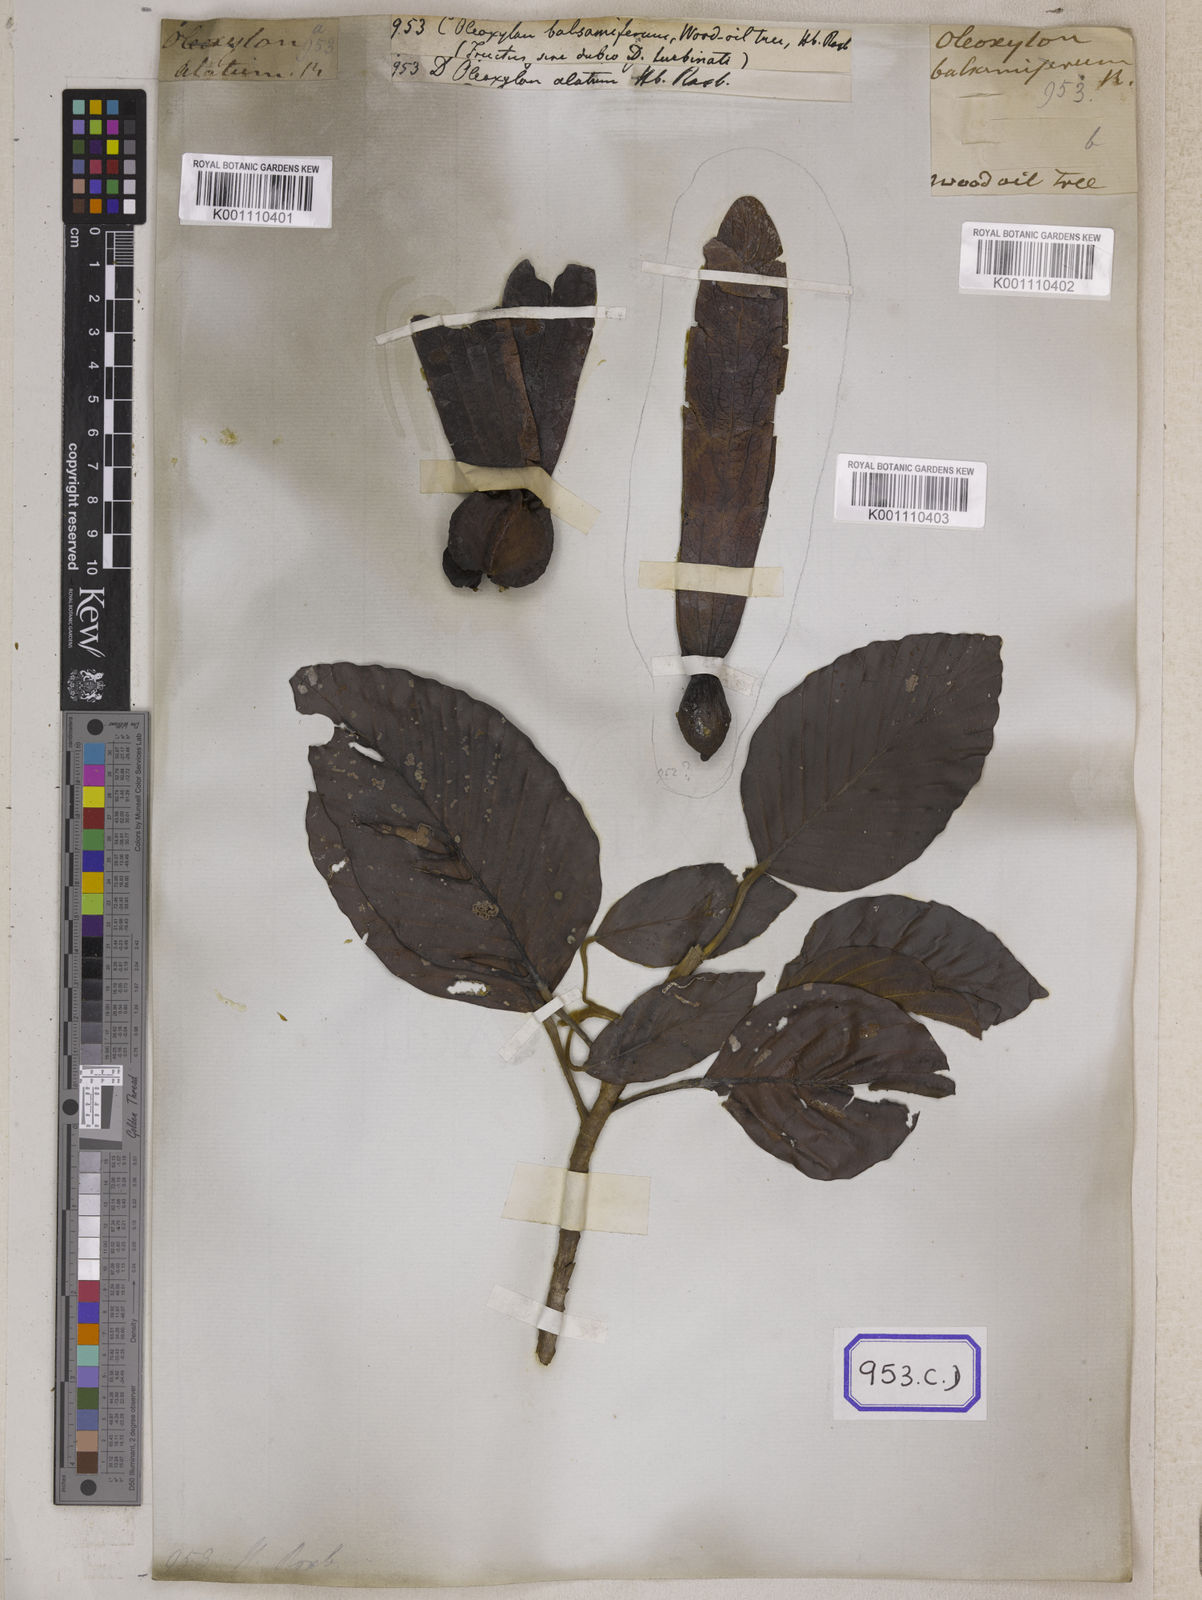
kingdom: Plantae
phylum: Tracheophyta
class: Magnoliopsida
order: Malvales
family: Dipterocarpaceae
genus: Dipterocarpus
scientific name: Dipterocarpus
